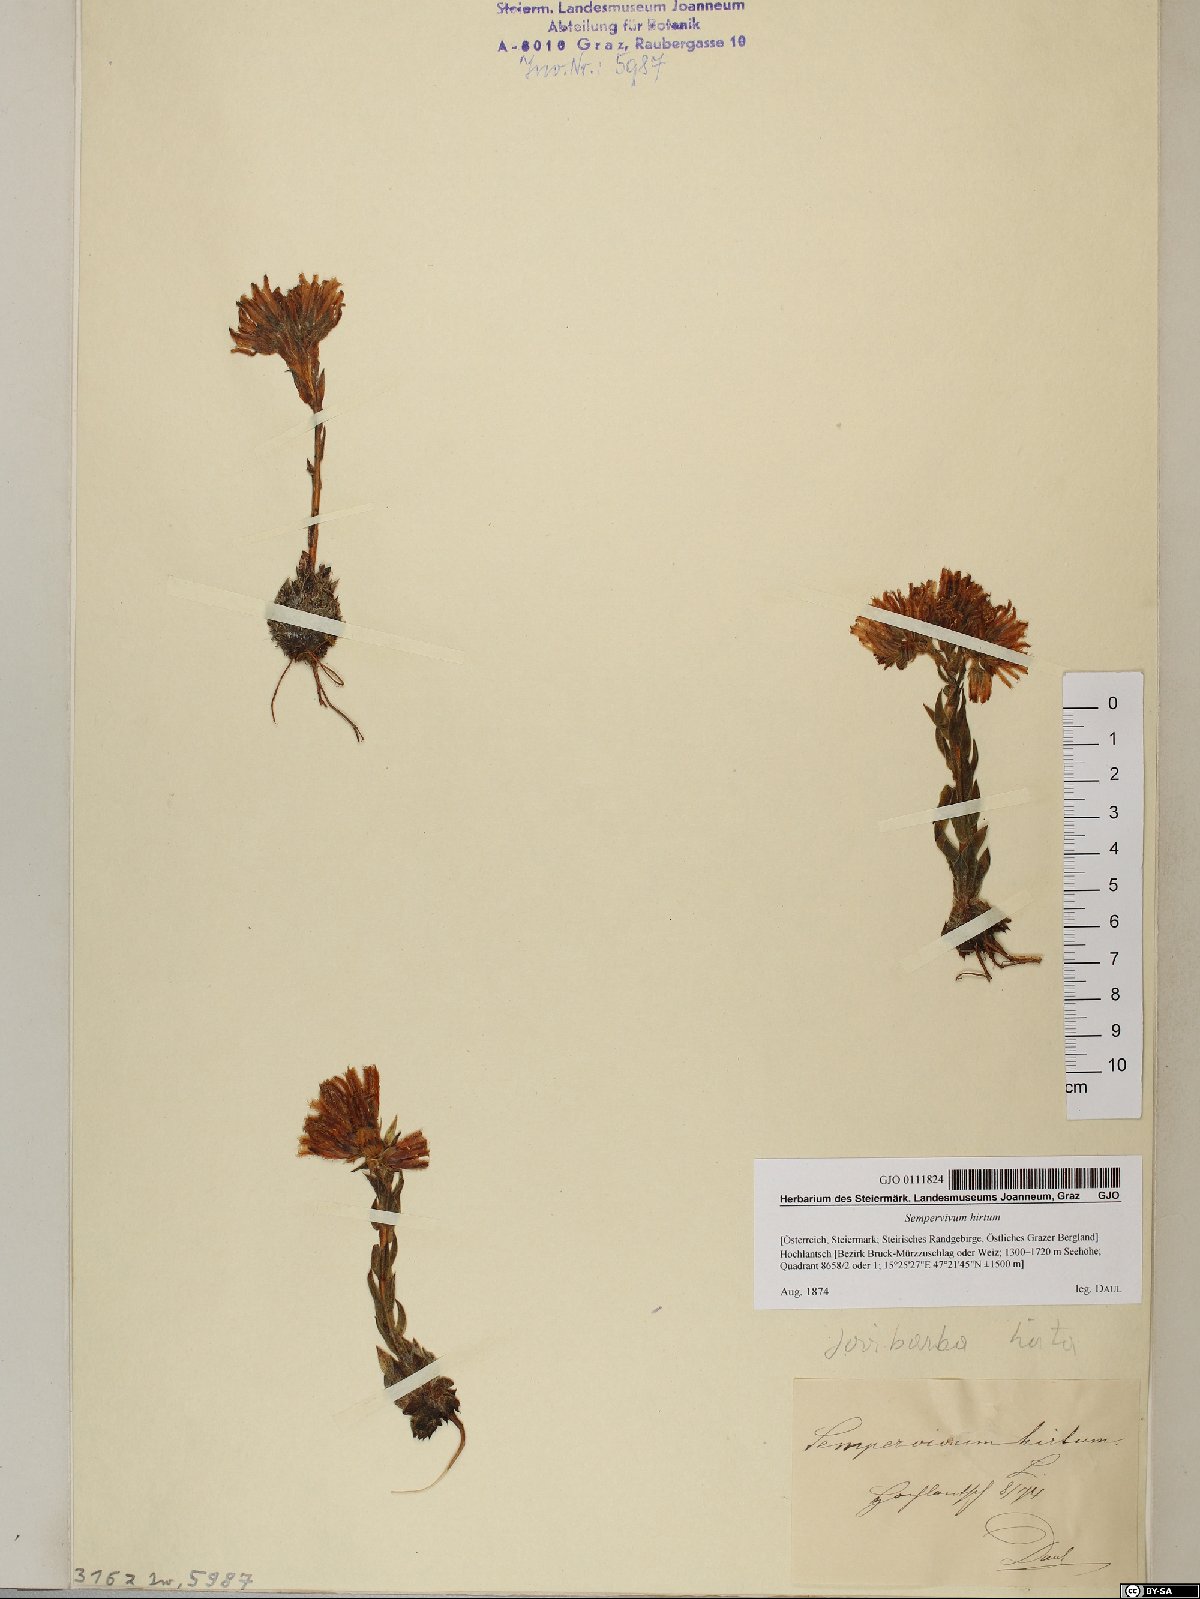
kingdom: Plantae
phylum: Tracheophyta
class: Magnoliopsida
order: Saxifragales
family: Crassulaceae
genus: Sempervivum
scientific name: Sempervivum globiferum
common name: Rolling hen-and-chicks
